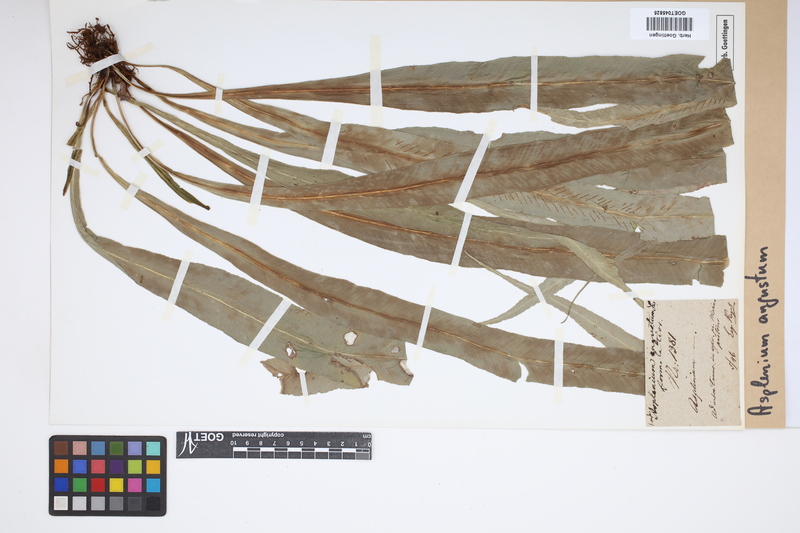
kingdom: Plantae
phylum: Tracheophyta
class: Polypodiopsida
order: Polypodiales
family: Aspleniaceae
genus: Asplenium
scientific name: Asplenium angustum
